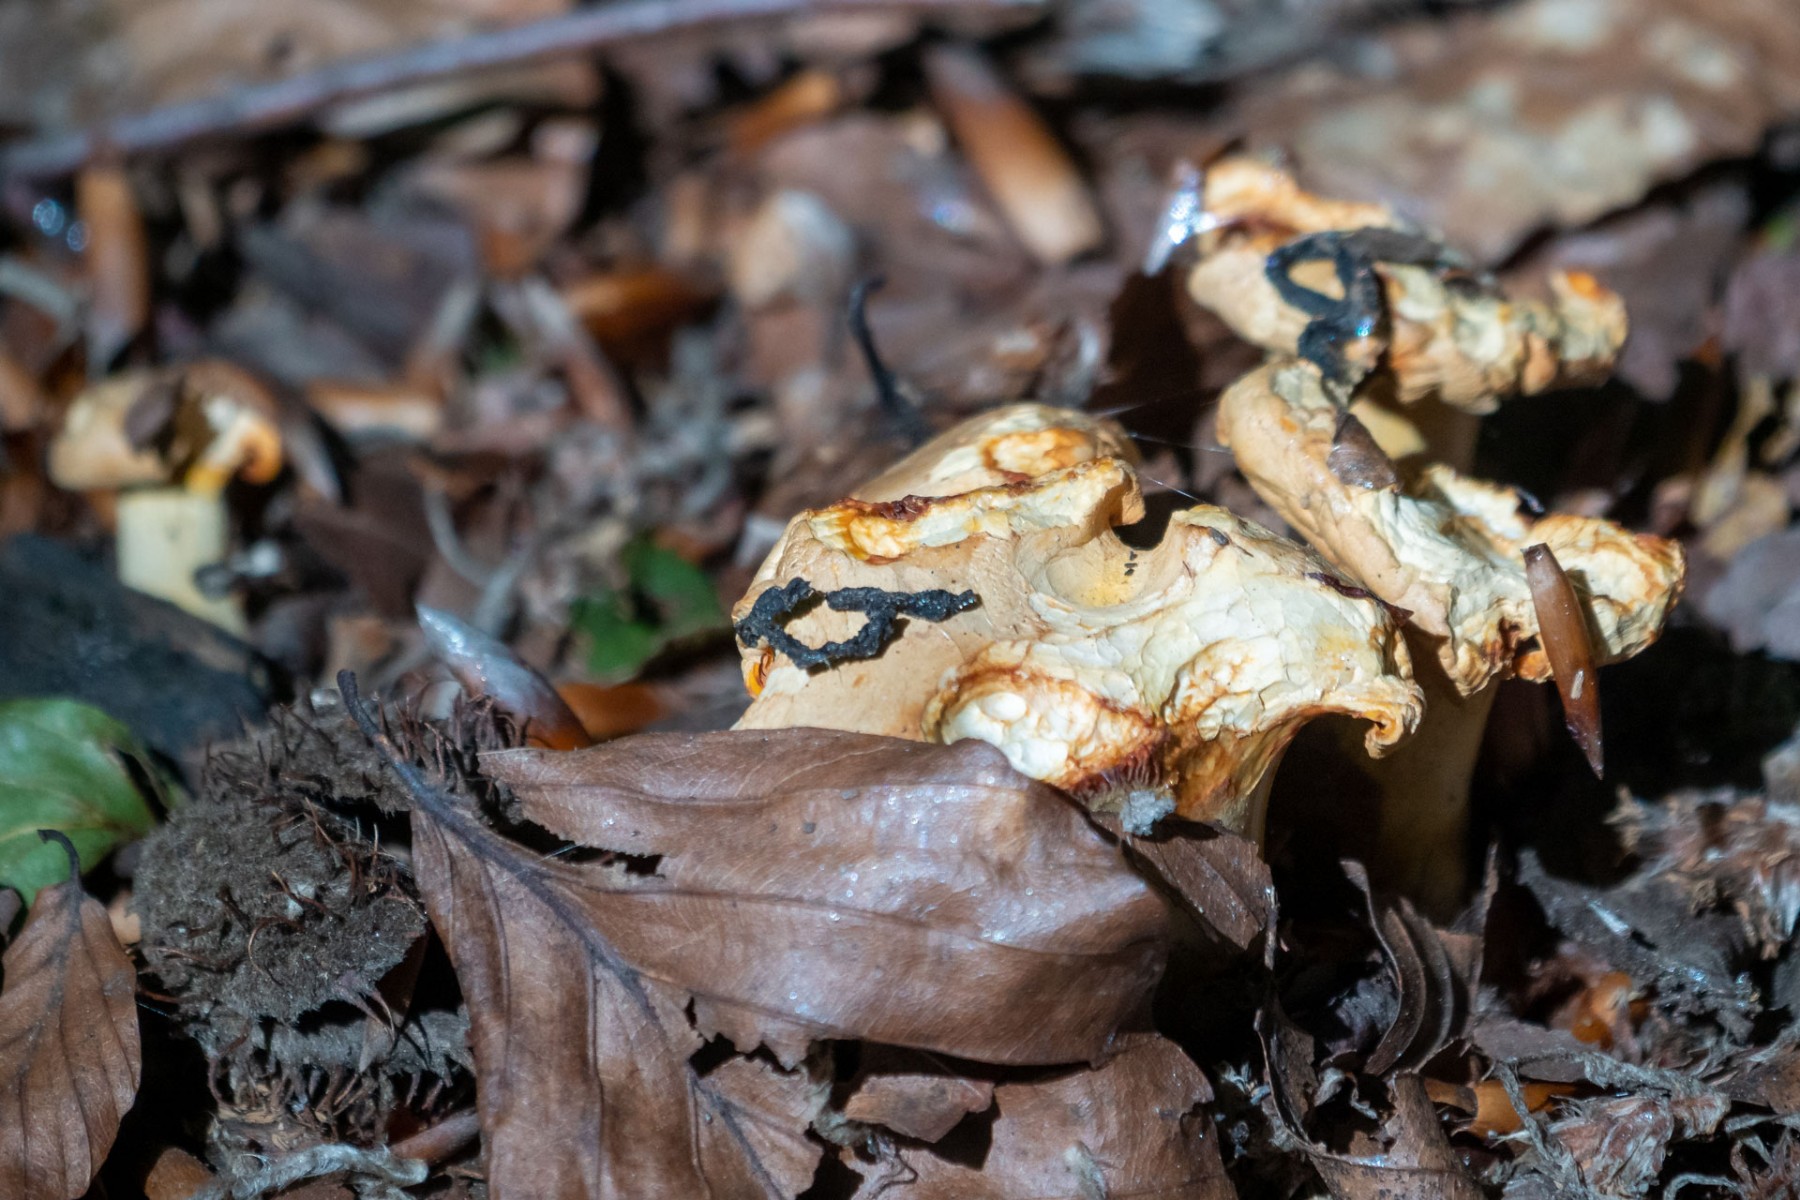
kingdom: Fungi
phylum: Basidiomycota
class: Agaricomycetes
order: Cantharellales
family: Hydnaceae
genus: Cantharellus
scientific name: Cantharellus pallens
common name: bleg kantarel
